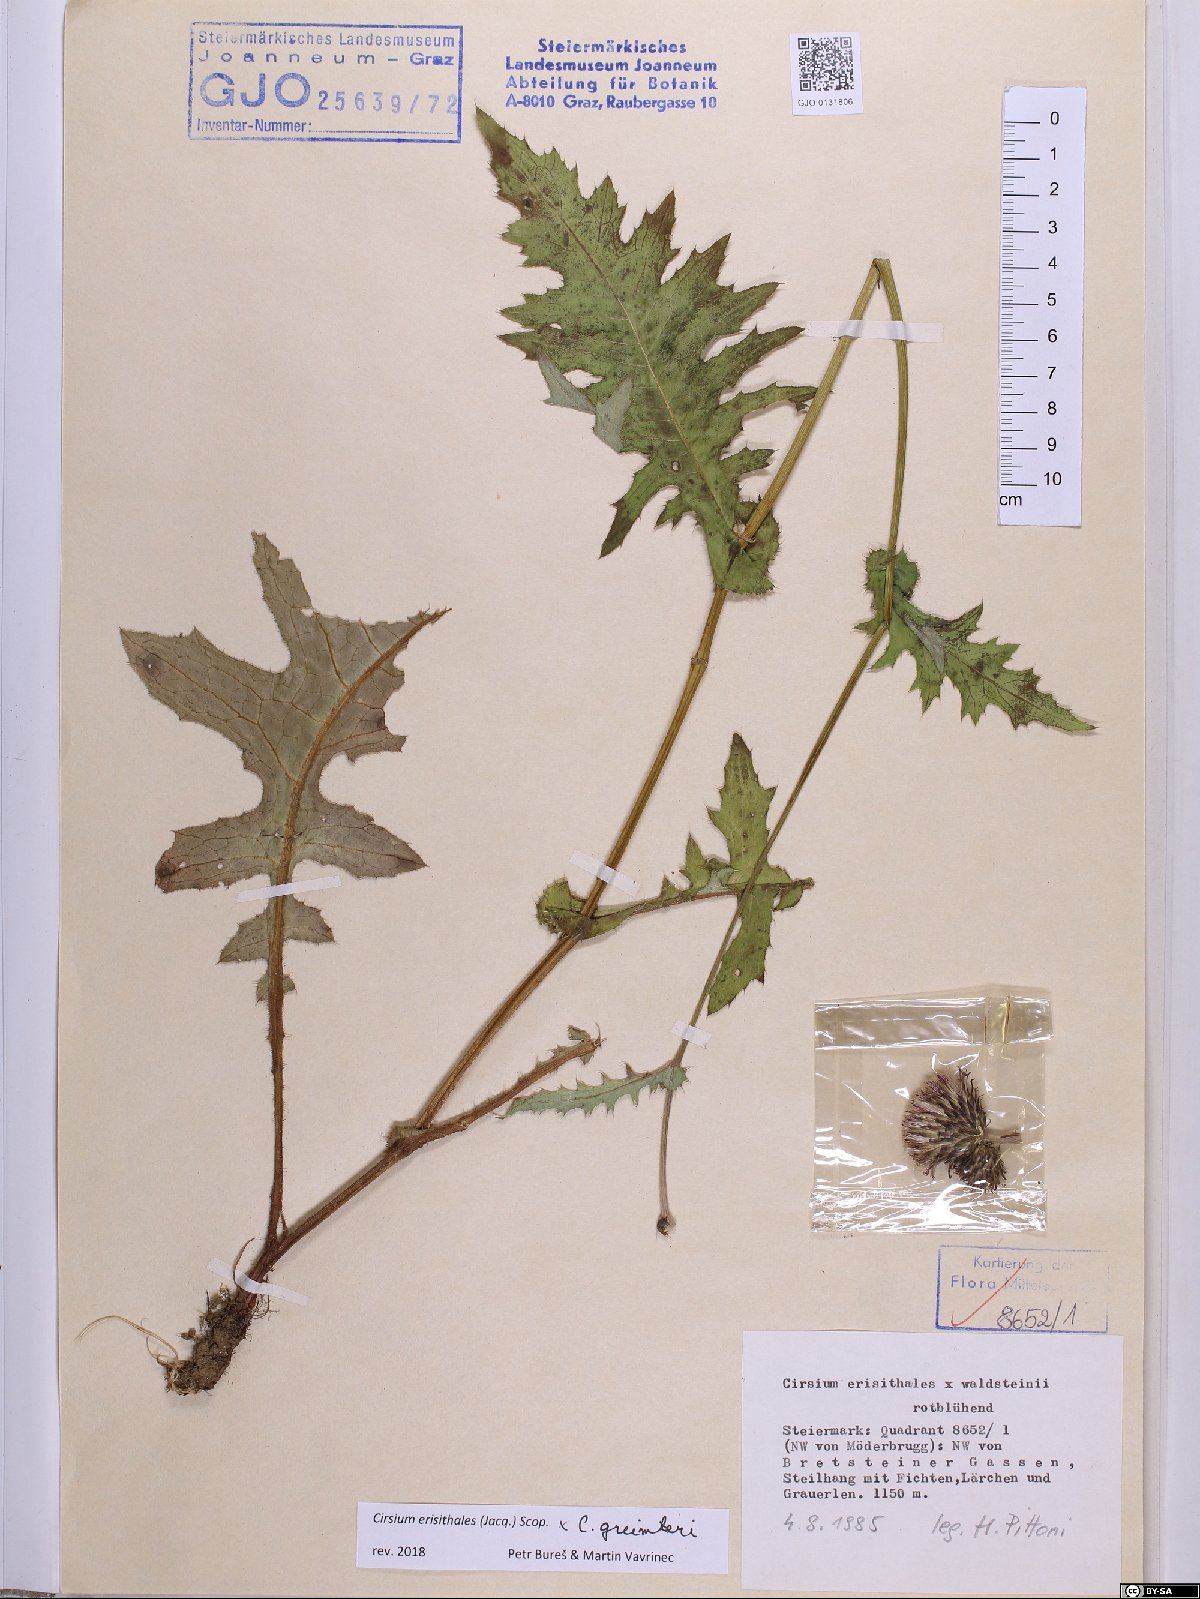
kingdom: Plantae
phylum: Tracheophyta
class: Magnoliopsida
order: Asterales
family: Asteraceae
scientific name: Asteraceae
